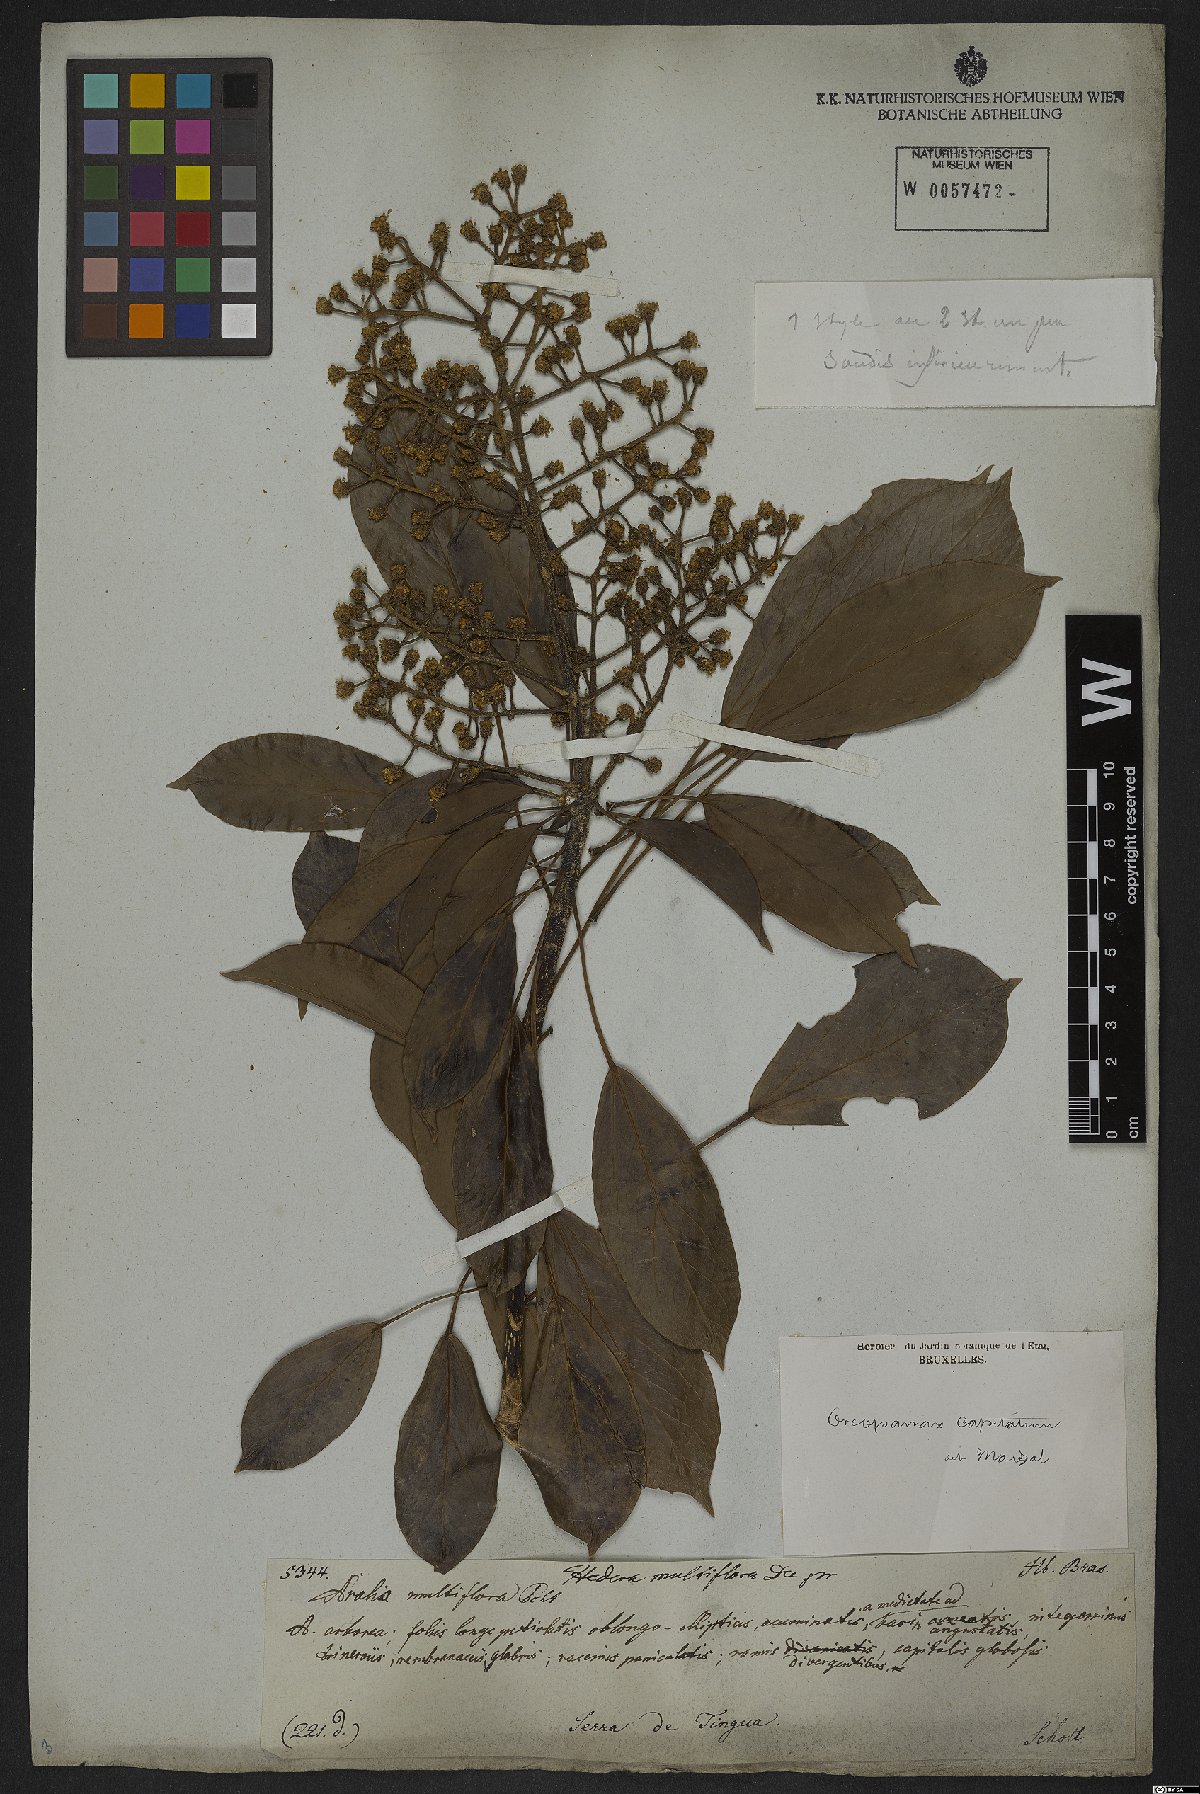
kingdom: Plantae
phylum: Tracheophyta
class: Magnoliopsida
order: Apiales
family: Araliaceae
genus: Oreopanax
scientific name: Oreopanax capitatus
